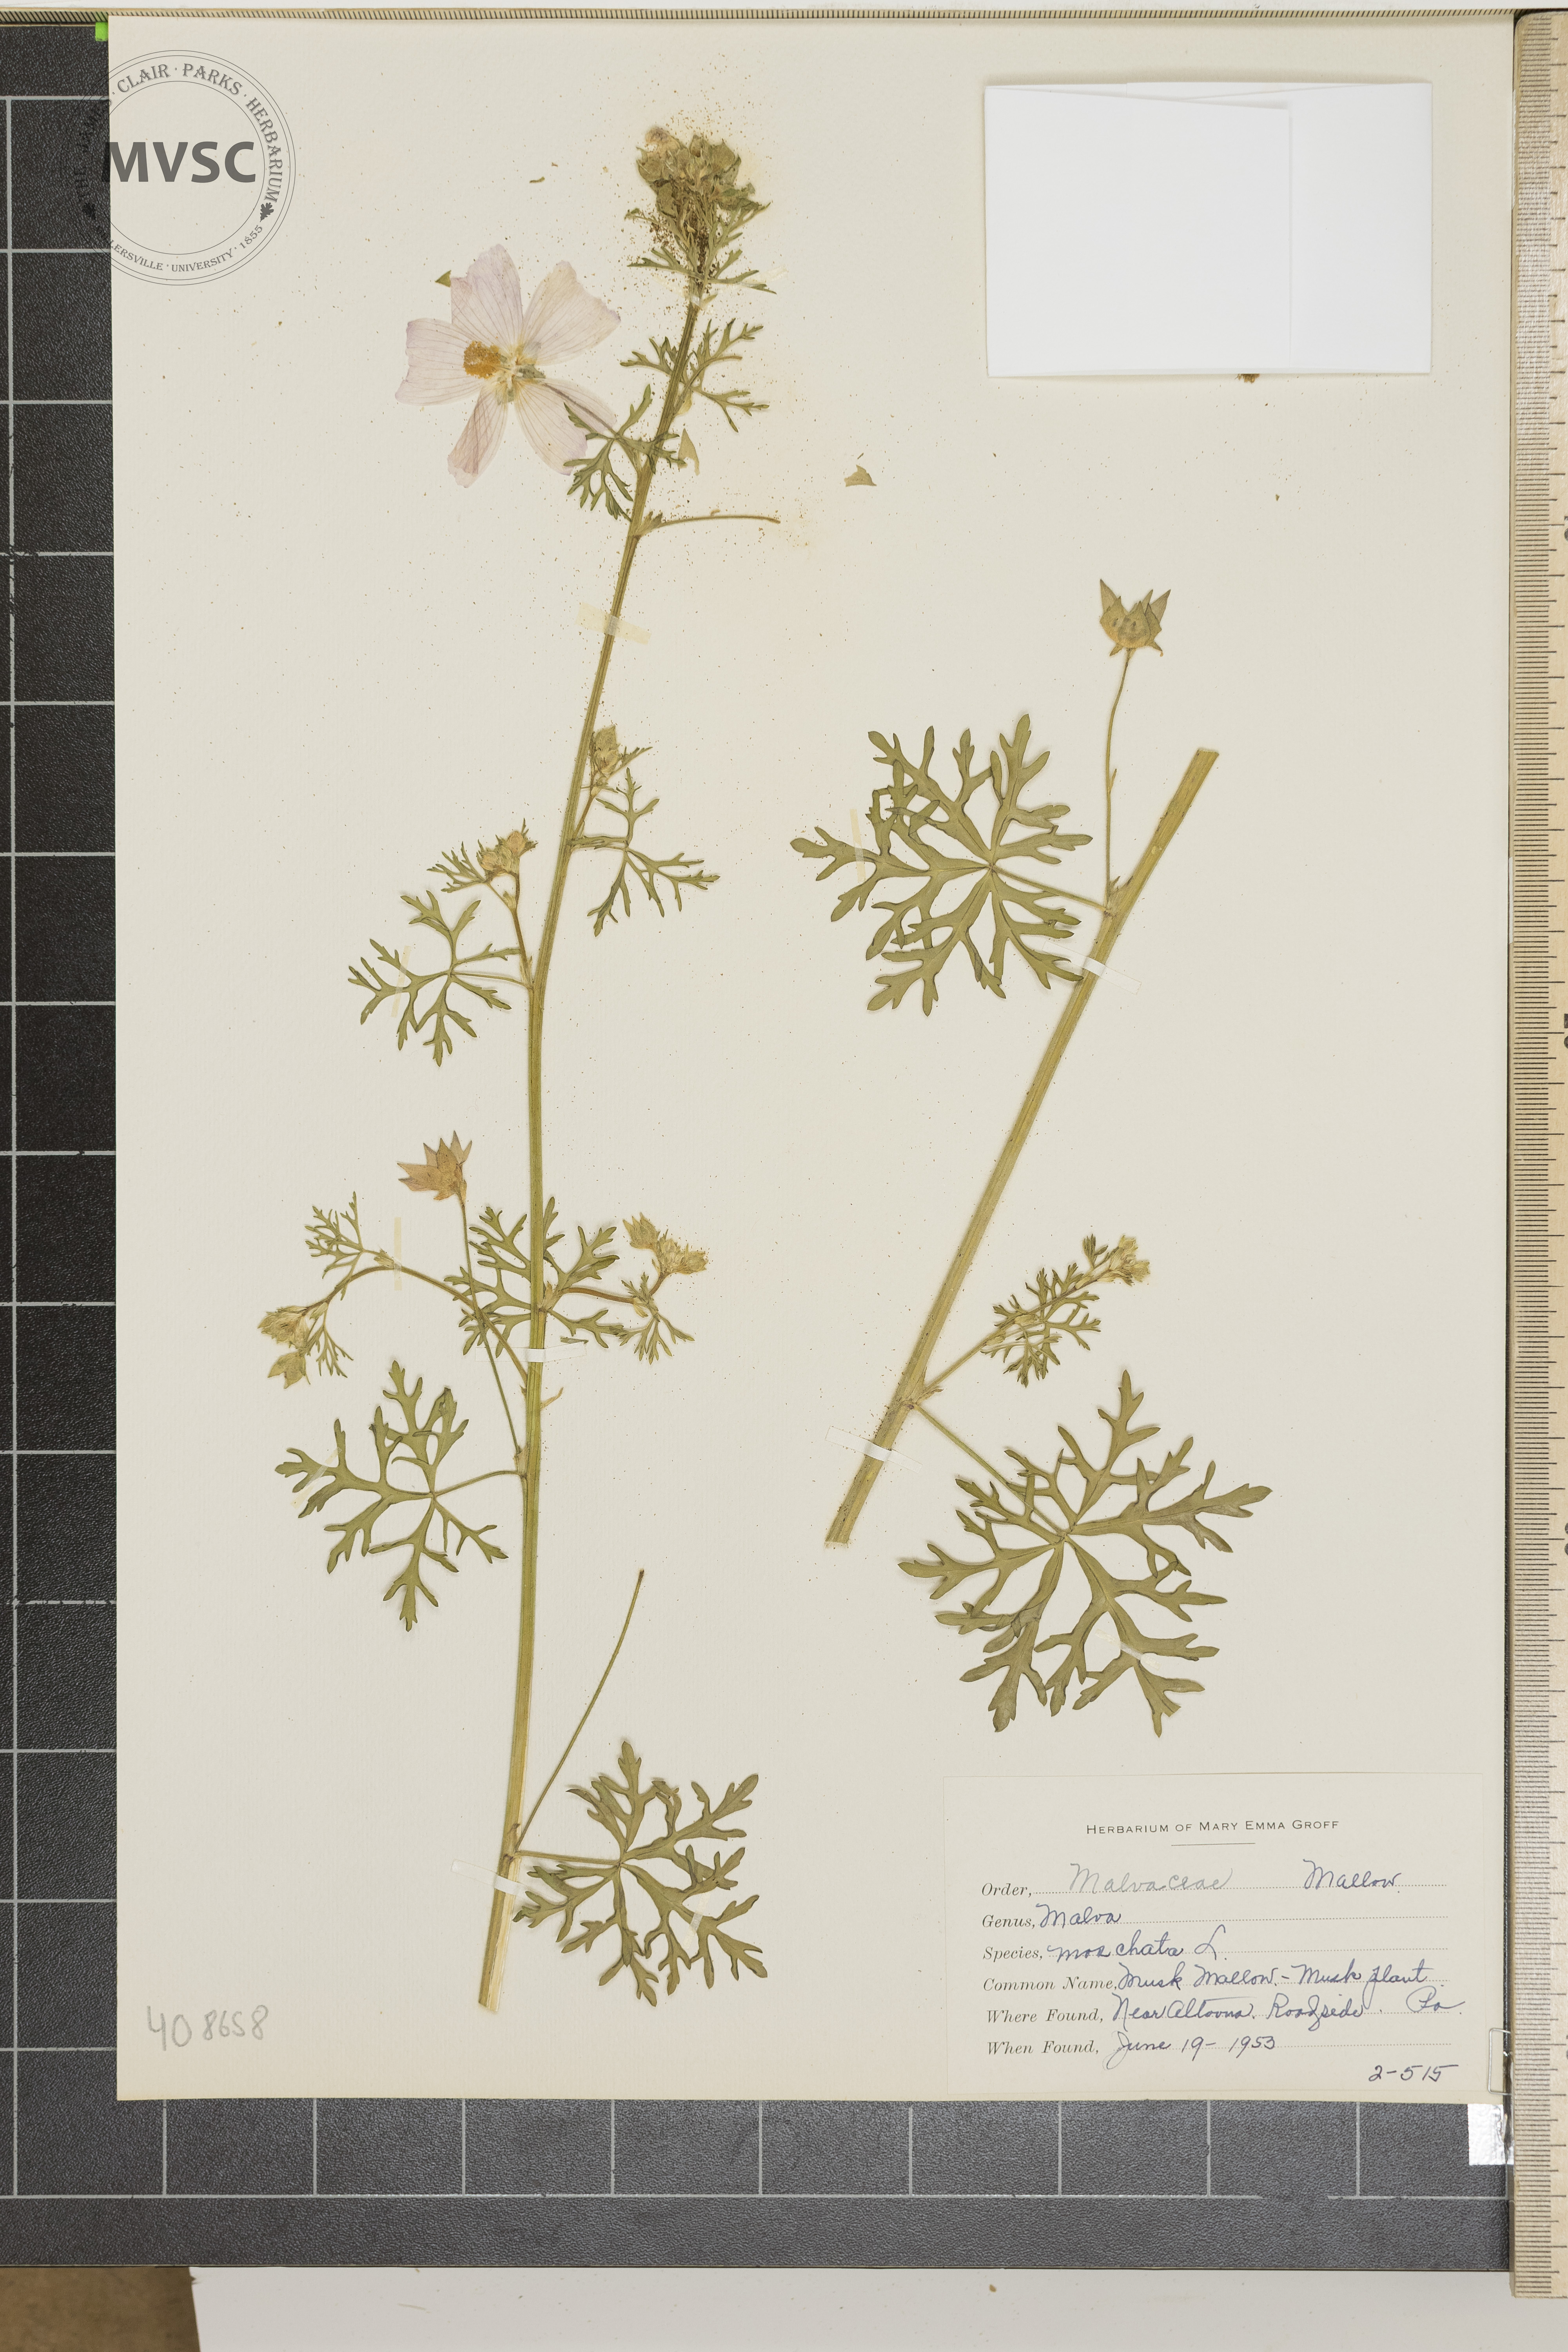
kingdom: Plantae
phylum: Tracheophyta
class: Magnoliopsida
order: Malvales
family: Malvaceae
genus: Malva
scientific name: Malva moschata
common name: Musk Mallow
